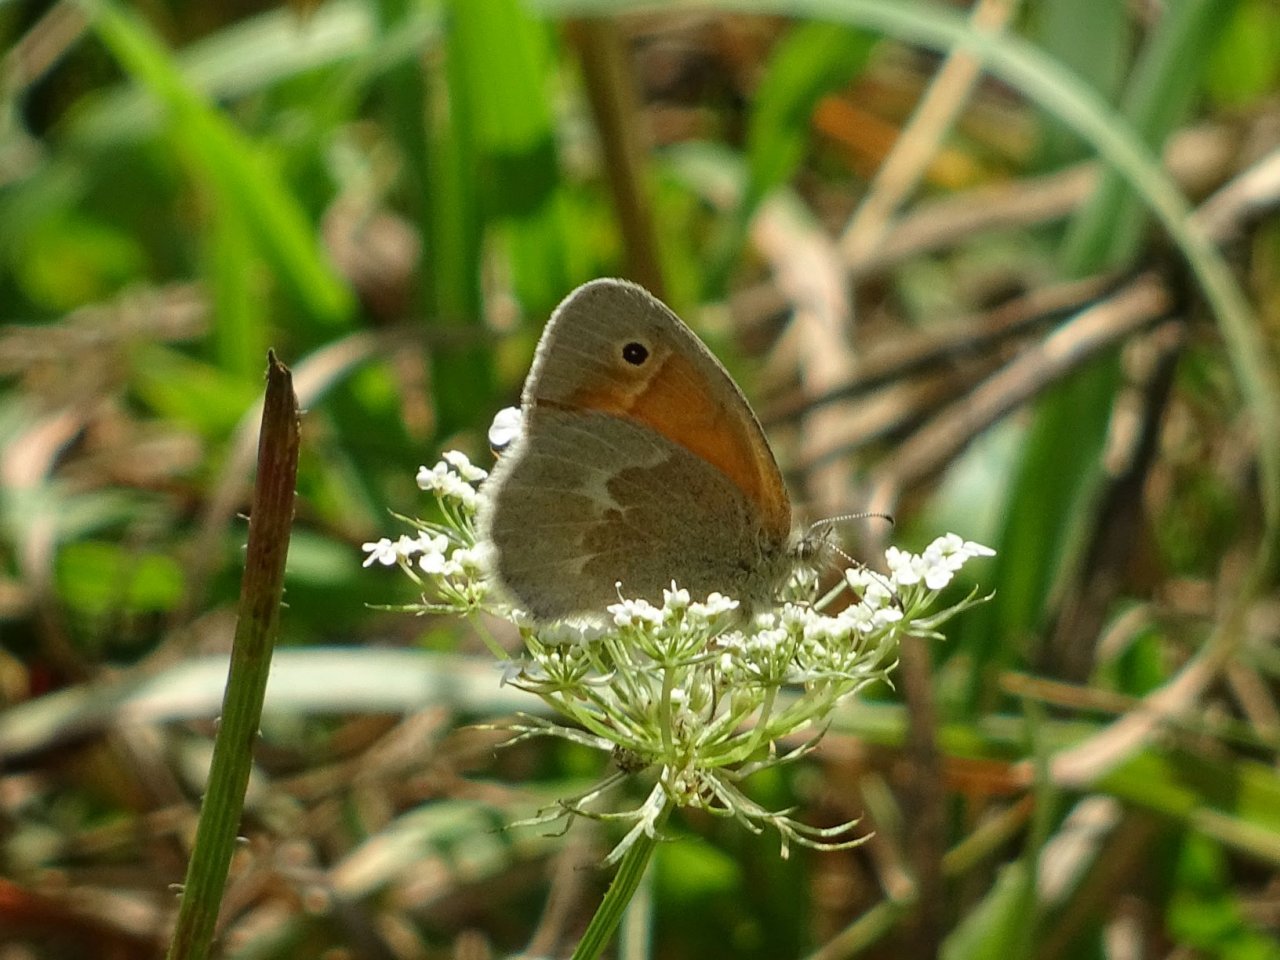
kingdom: Animalia
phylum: Arthropoda
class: Insecta
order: Lepidoptera
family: Nymphalidae
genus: Coenonympha
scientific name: Coenonympha tullia
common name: Large Heath
